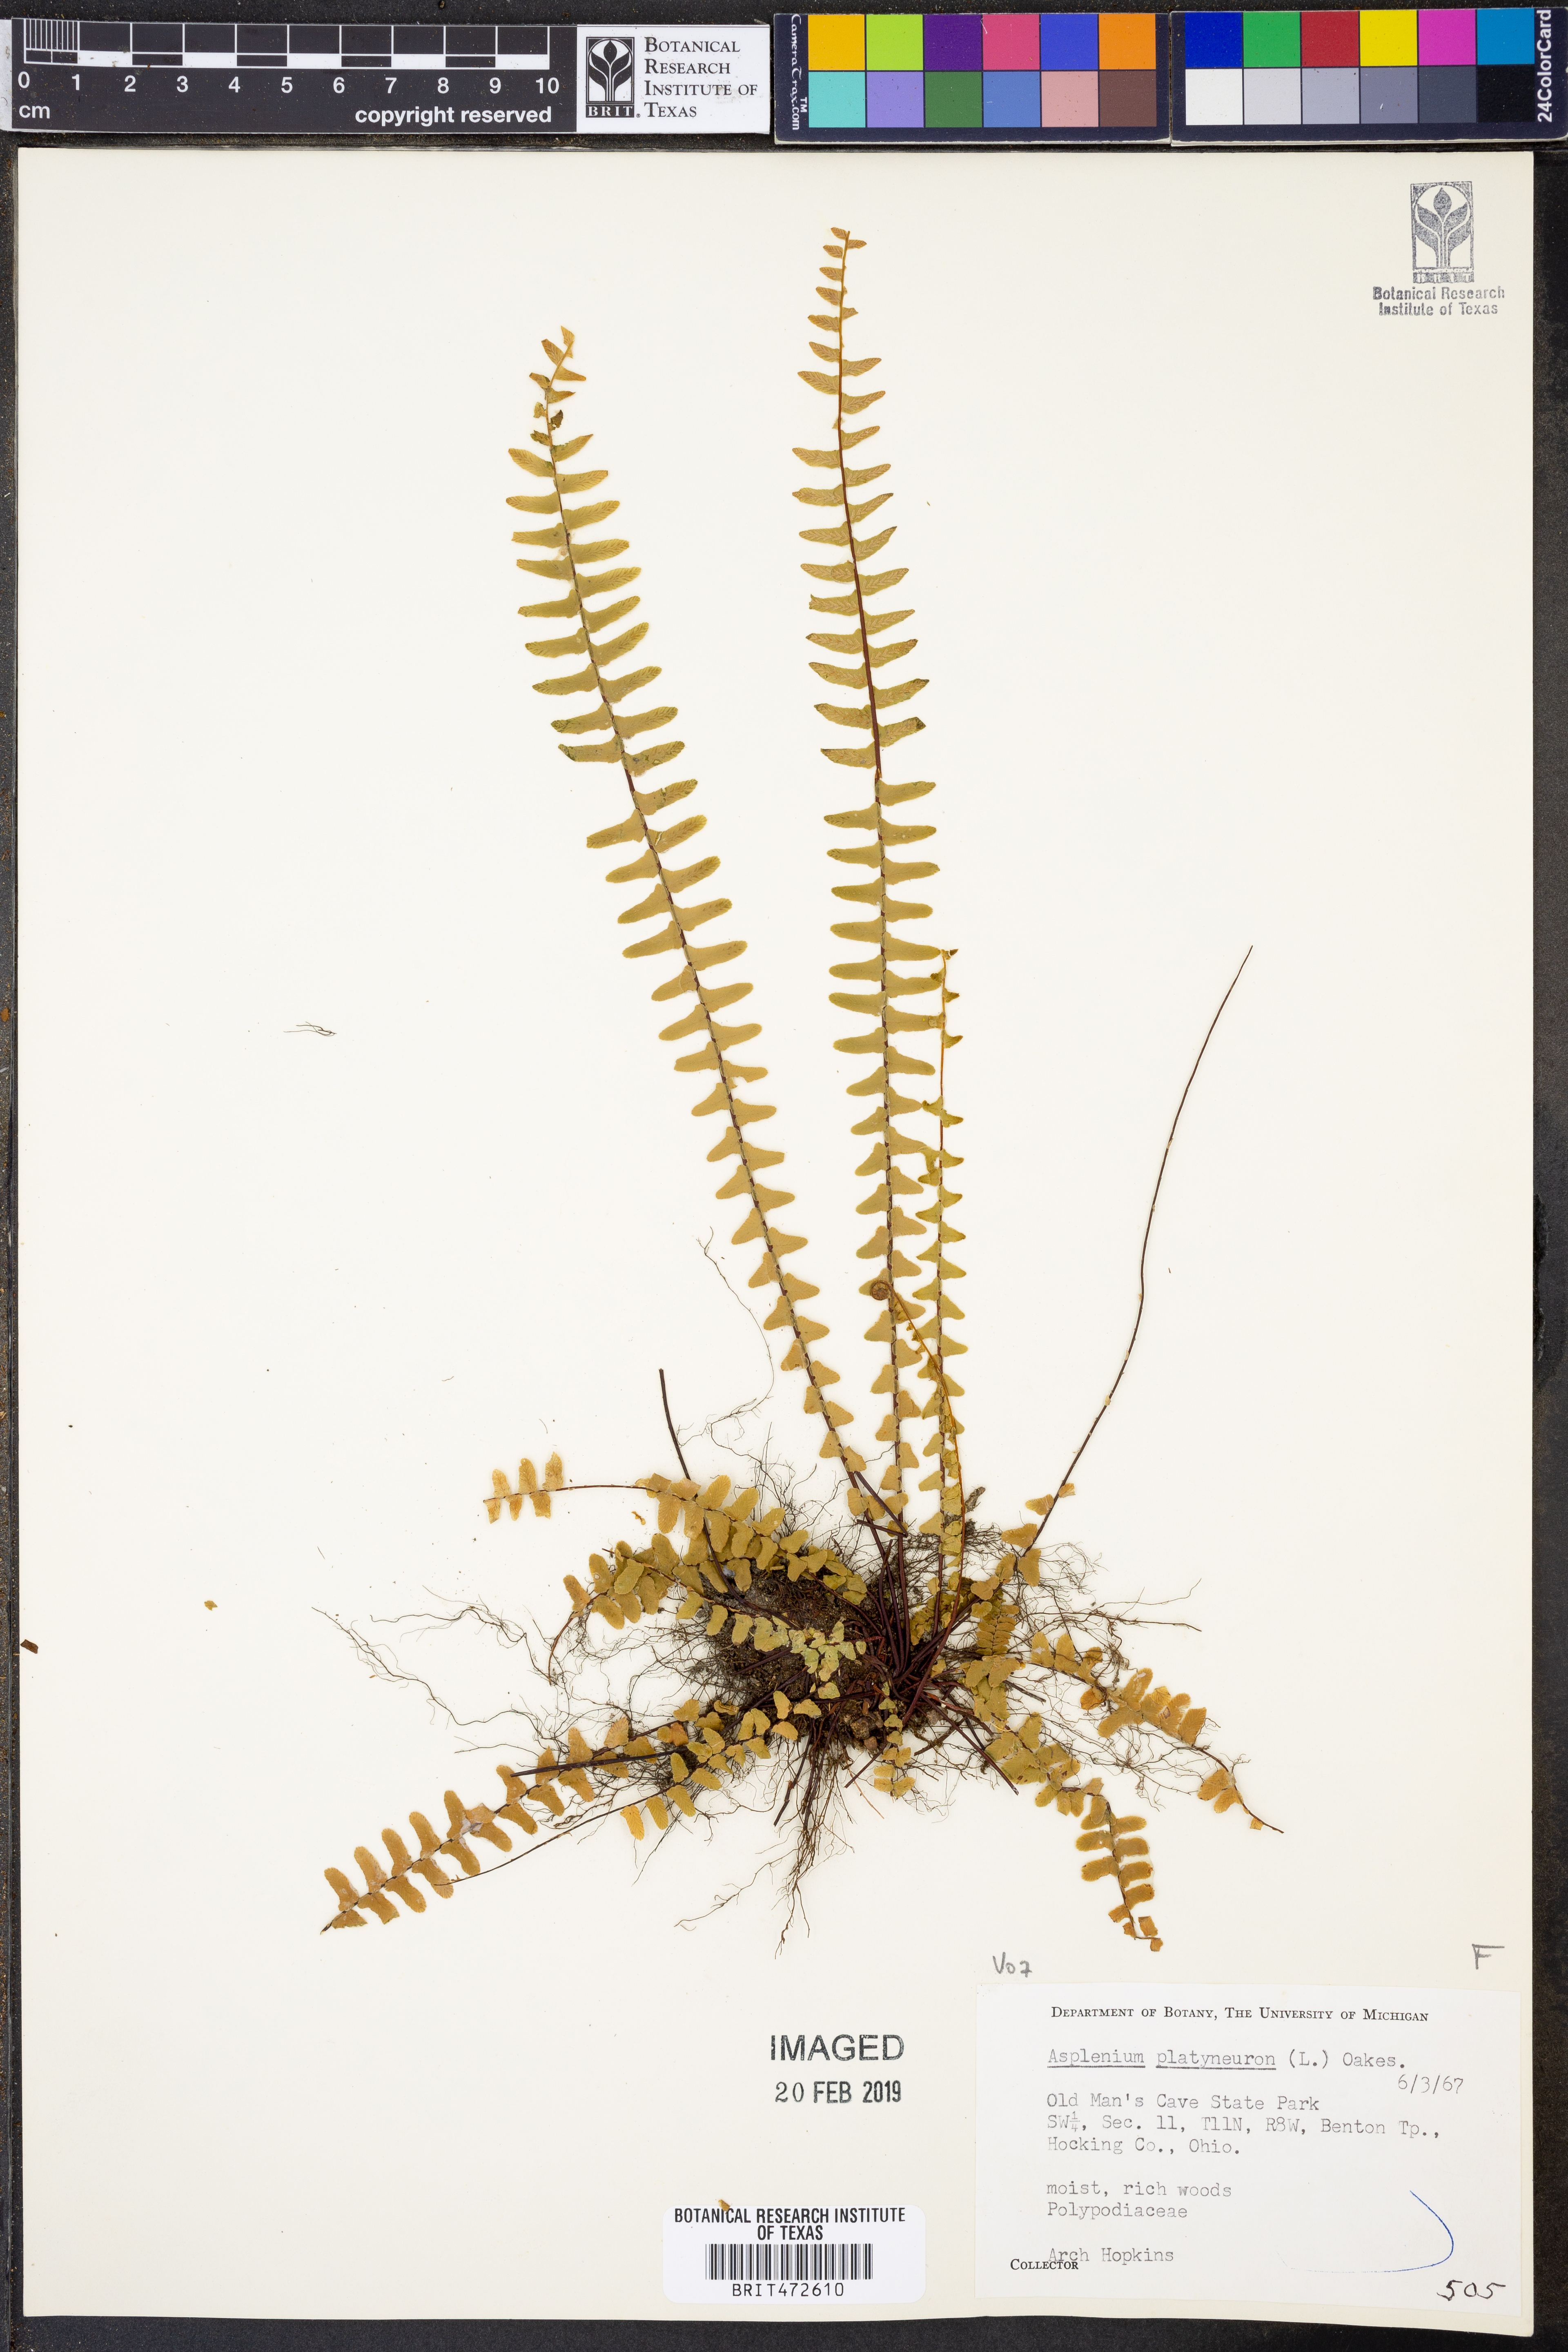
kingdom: Plantae
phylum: Tracheophyta
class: Polypodiopsida
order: Polypodiales
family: Aspleniaceae
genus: Asplenium
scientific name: Asplenium platyneuron
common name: Ebony spleenwort
